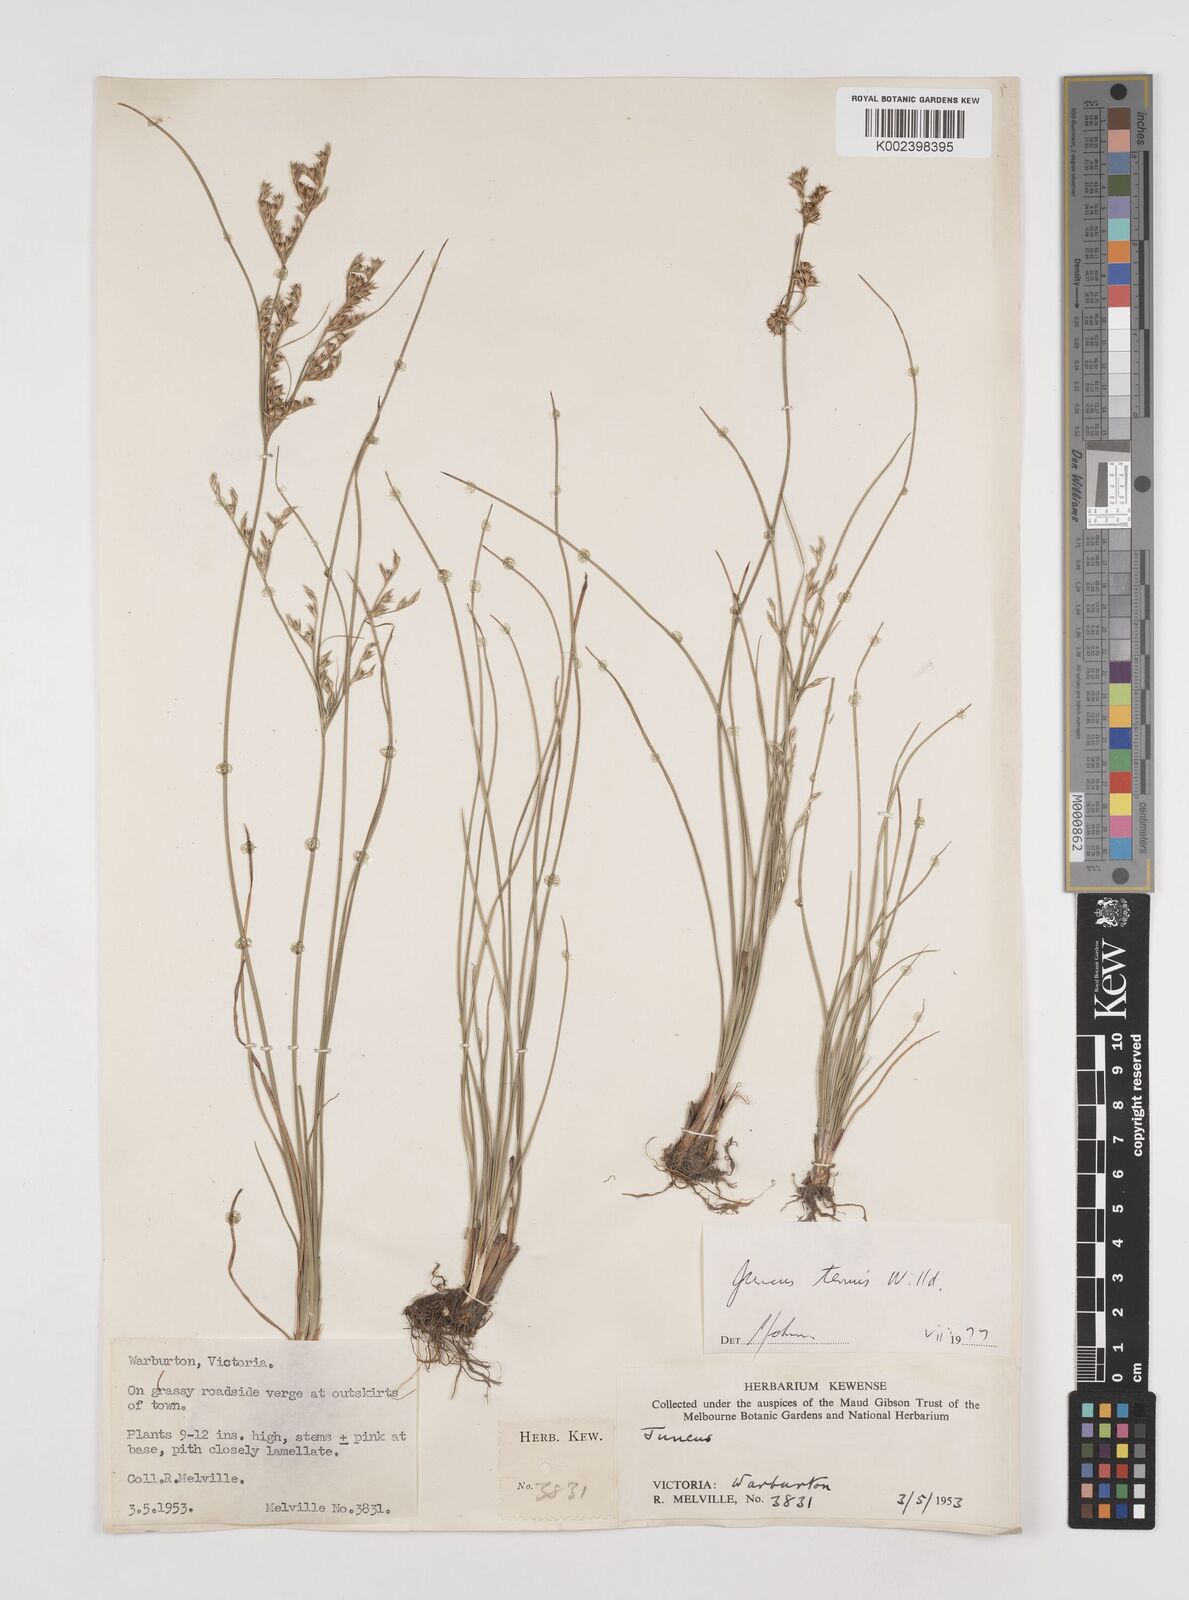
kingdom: Plantae
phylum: Tracheophyta
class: Liliopsida
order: Poales
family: Juncaceae
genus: Juncus
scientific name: Juncus tenuis
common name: Slender rush
